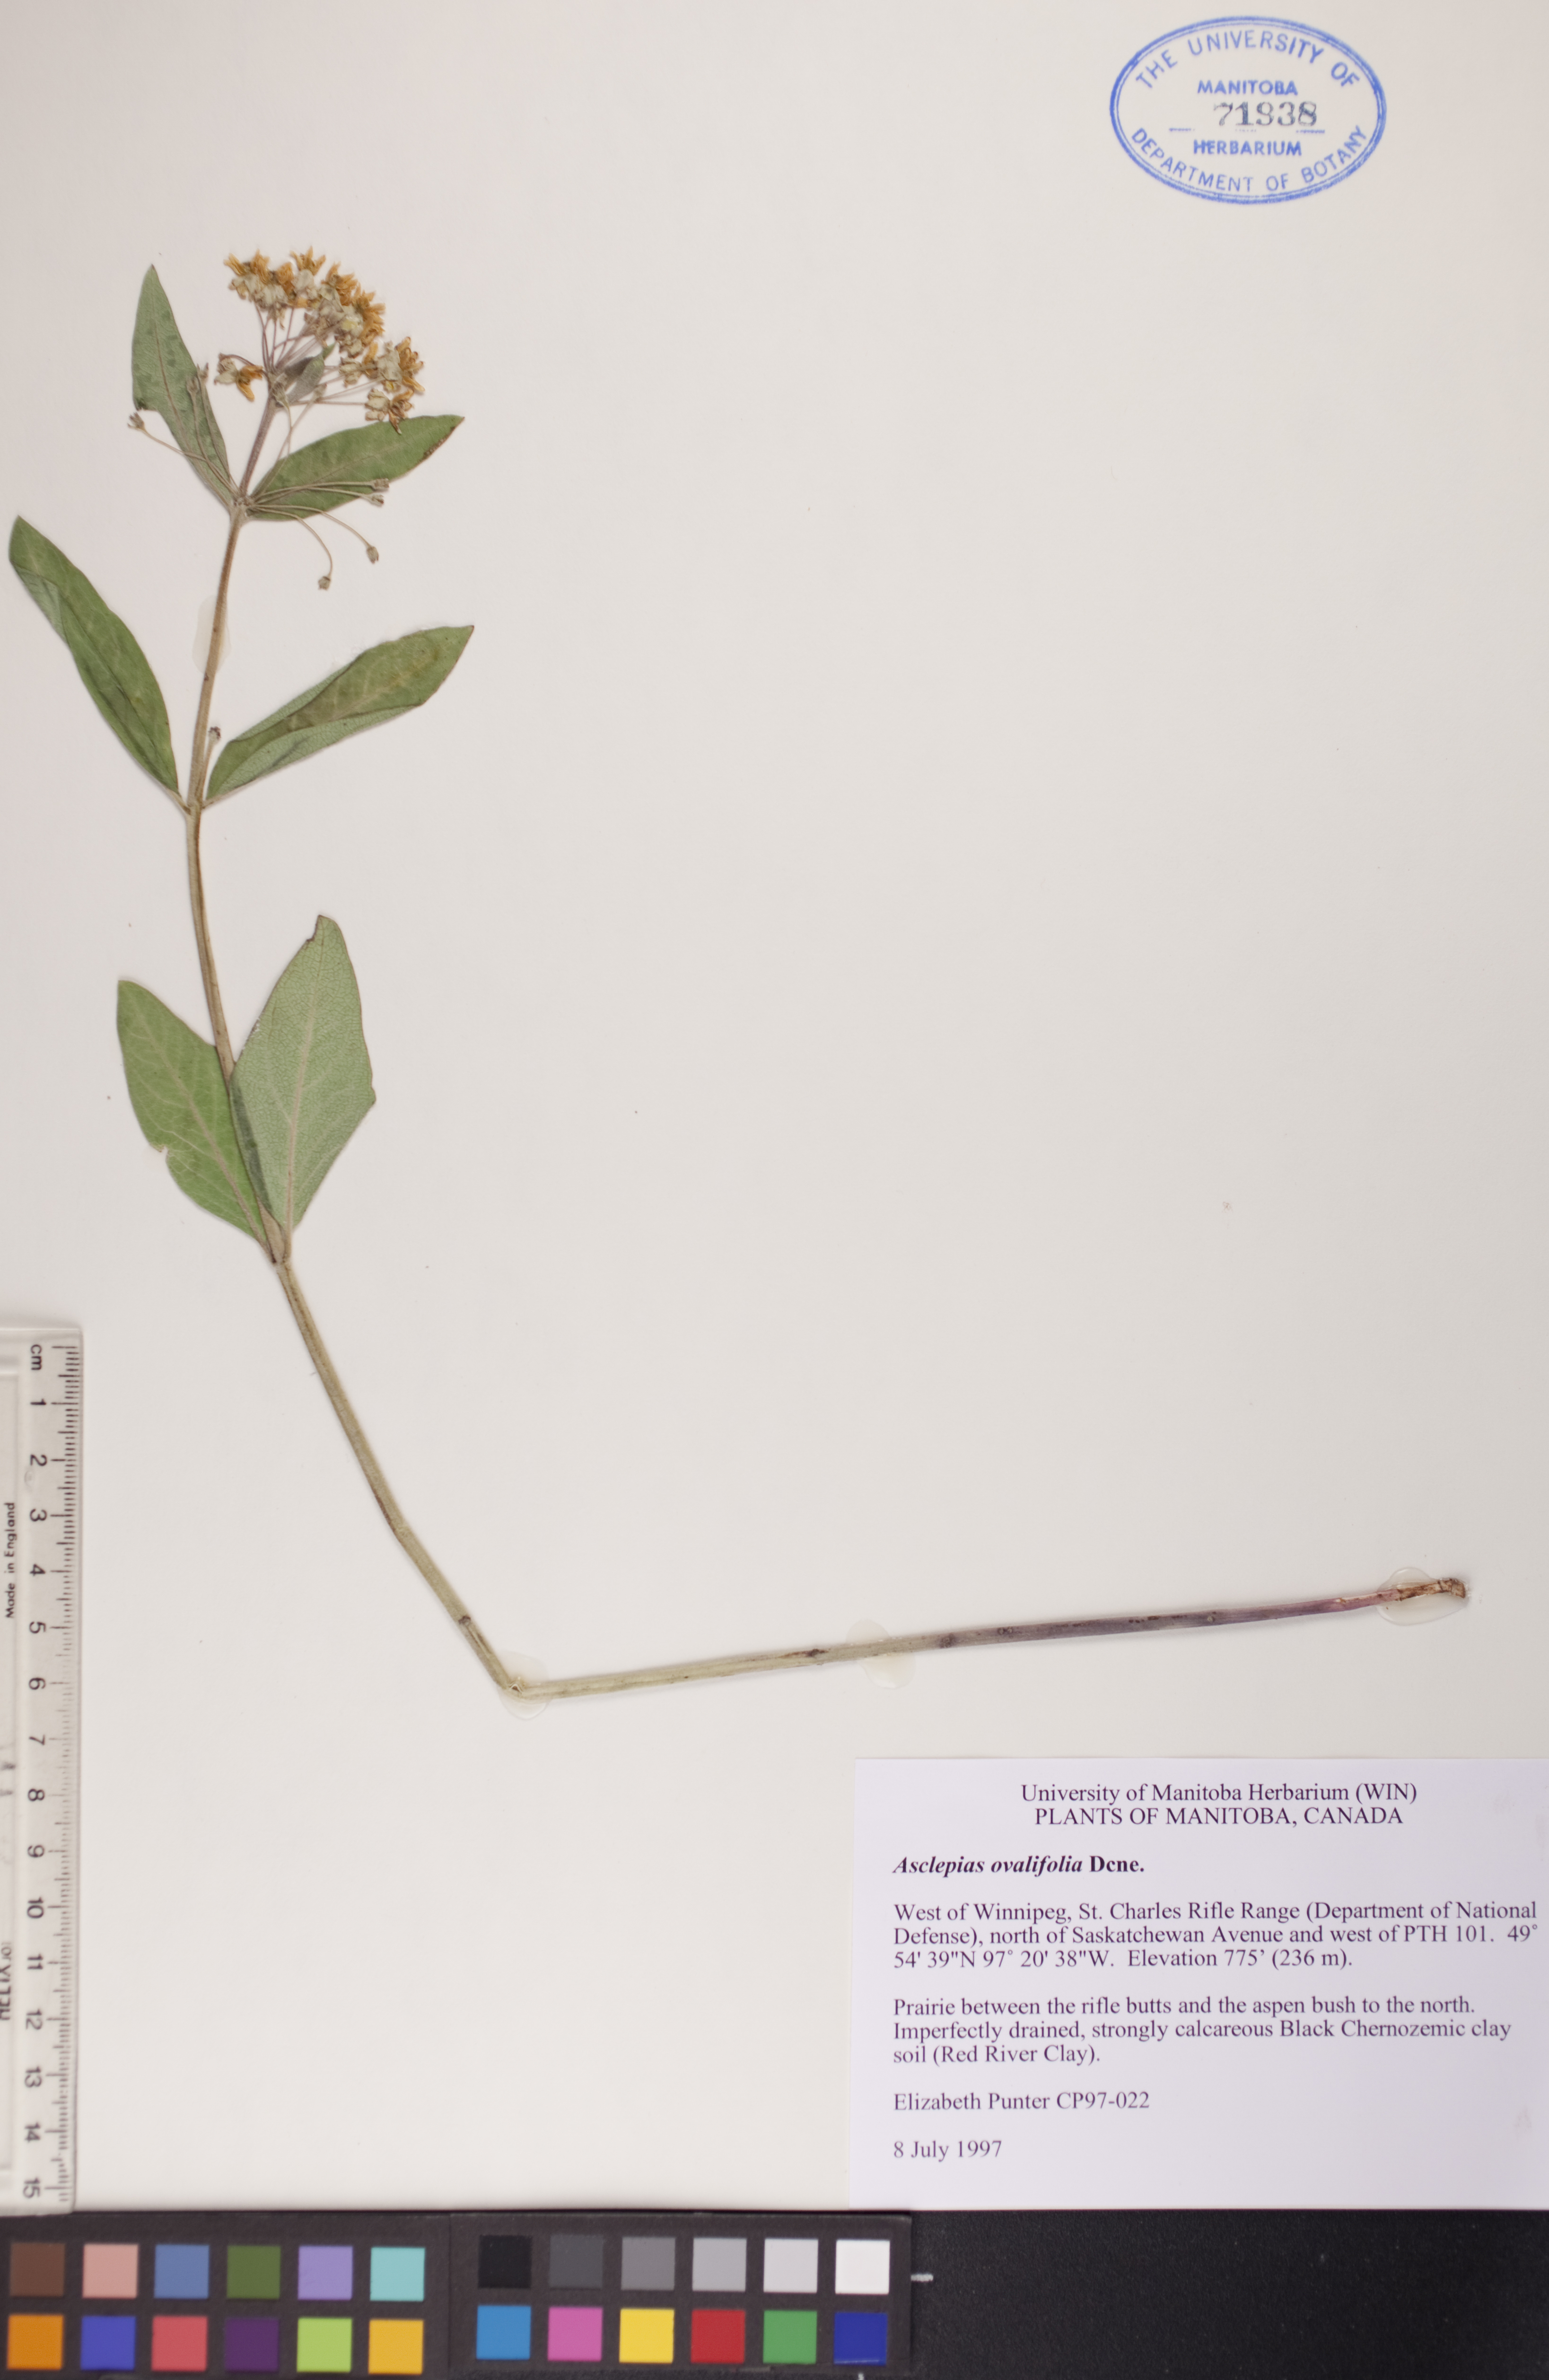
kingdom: Plantae
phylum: Tracheophyta
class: Magnoliopsida
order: Gentianales
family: Apocynaceae
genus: Asclepias
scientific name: Asclepias ovalifolia
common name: Dwarf milkweed
